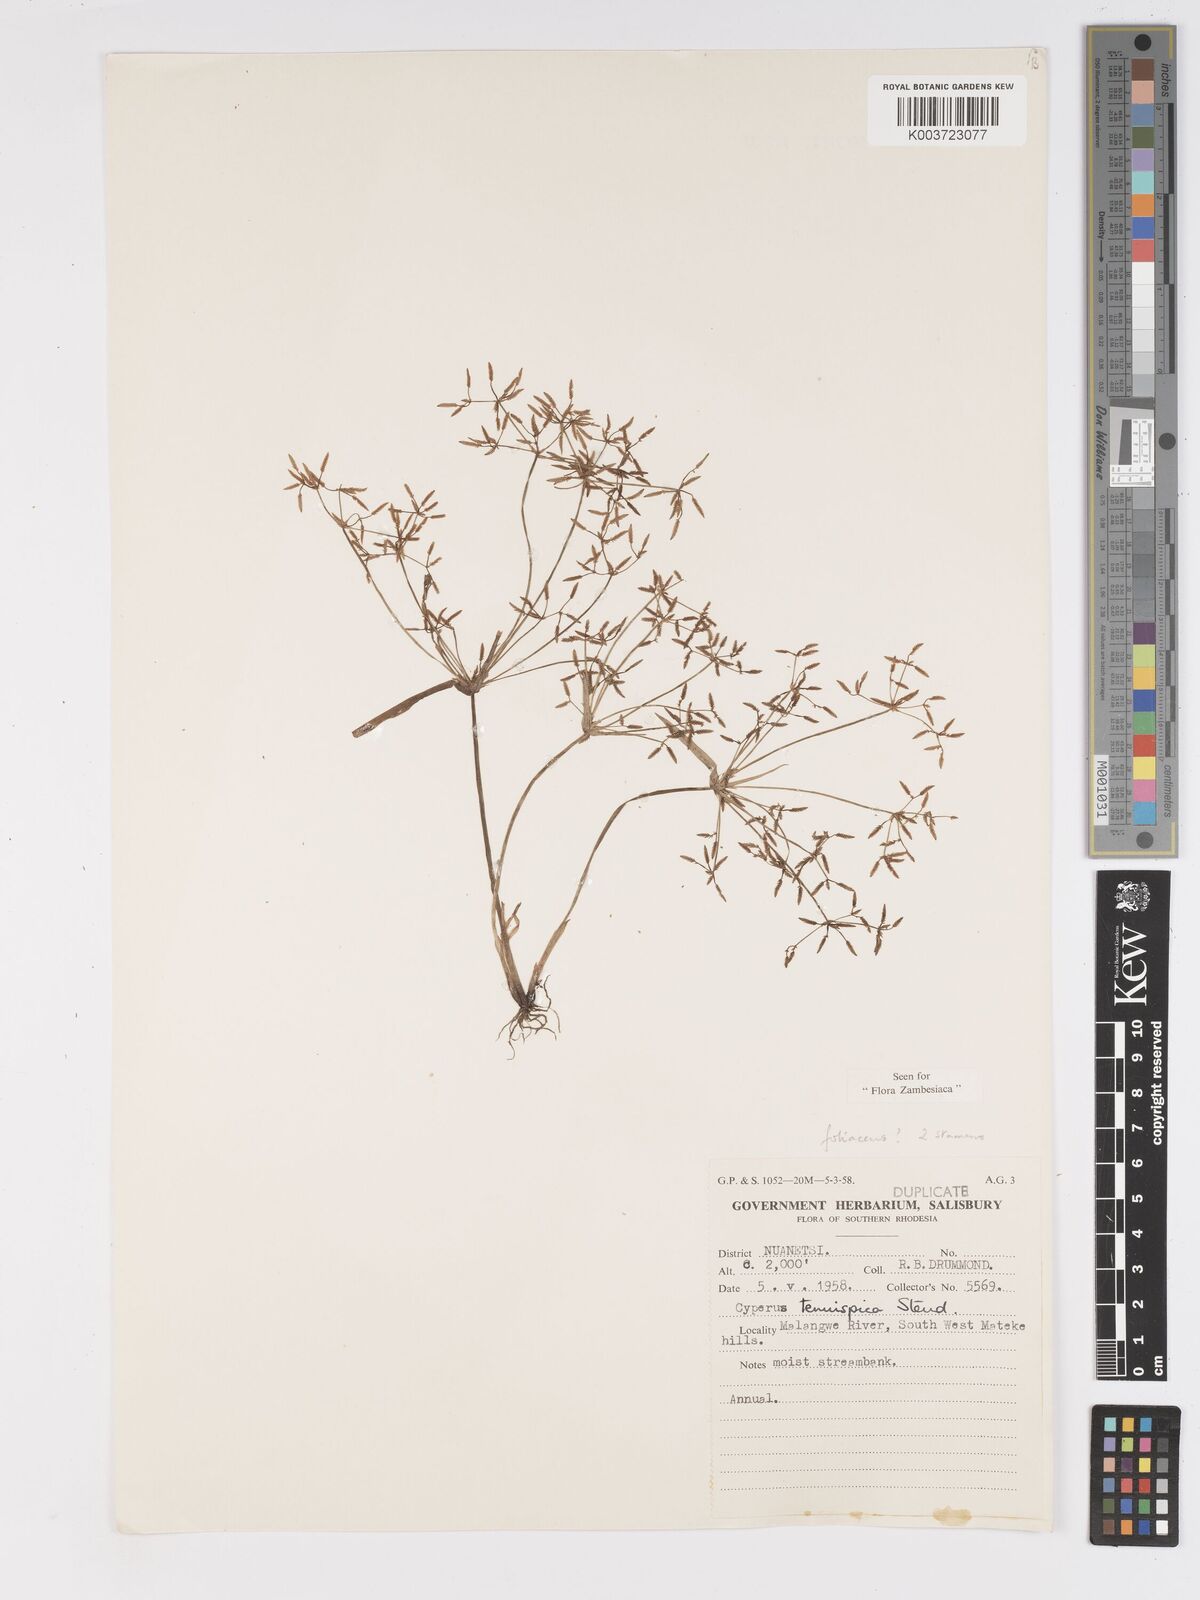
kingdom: Plantae
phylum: Tracheophyta
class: Liliopsida
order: Poales
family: Cyperaceae
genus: Cyperus
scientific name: Cyperus tenuispica
